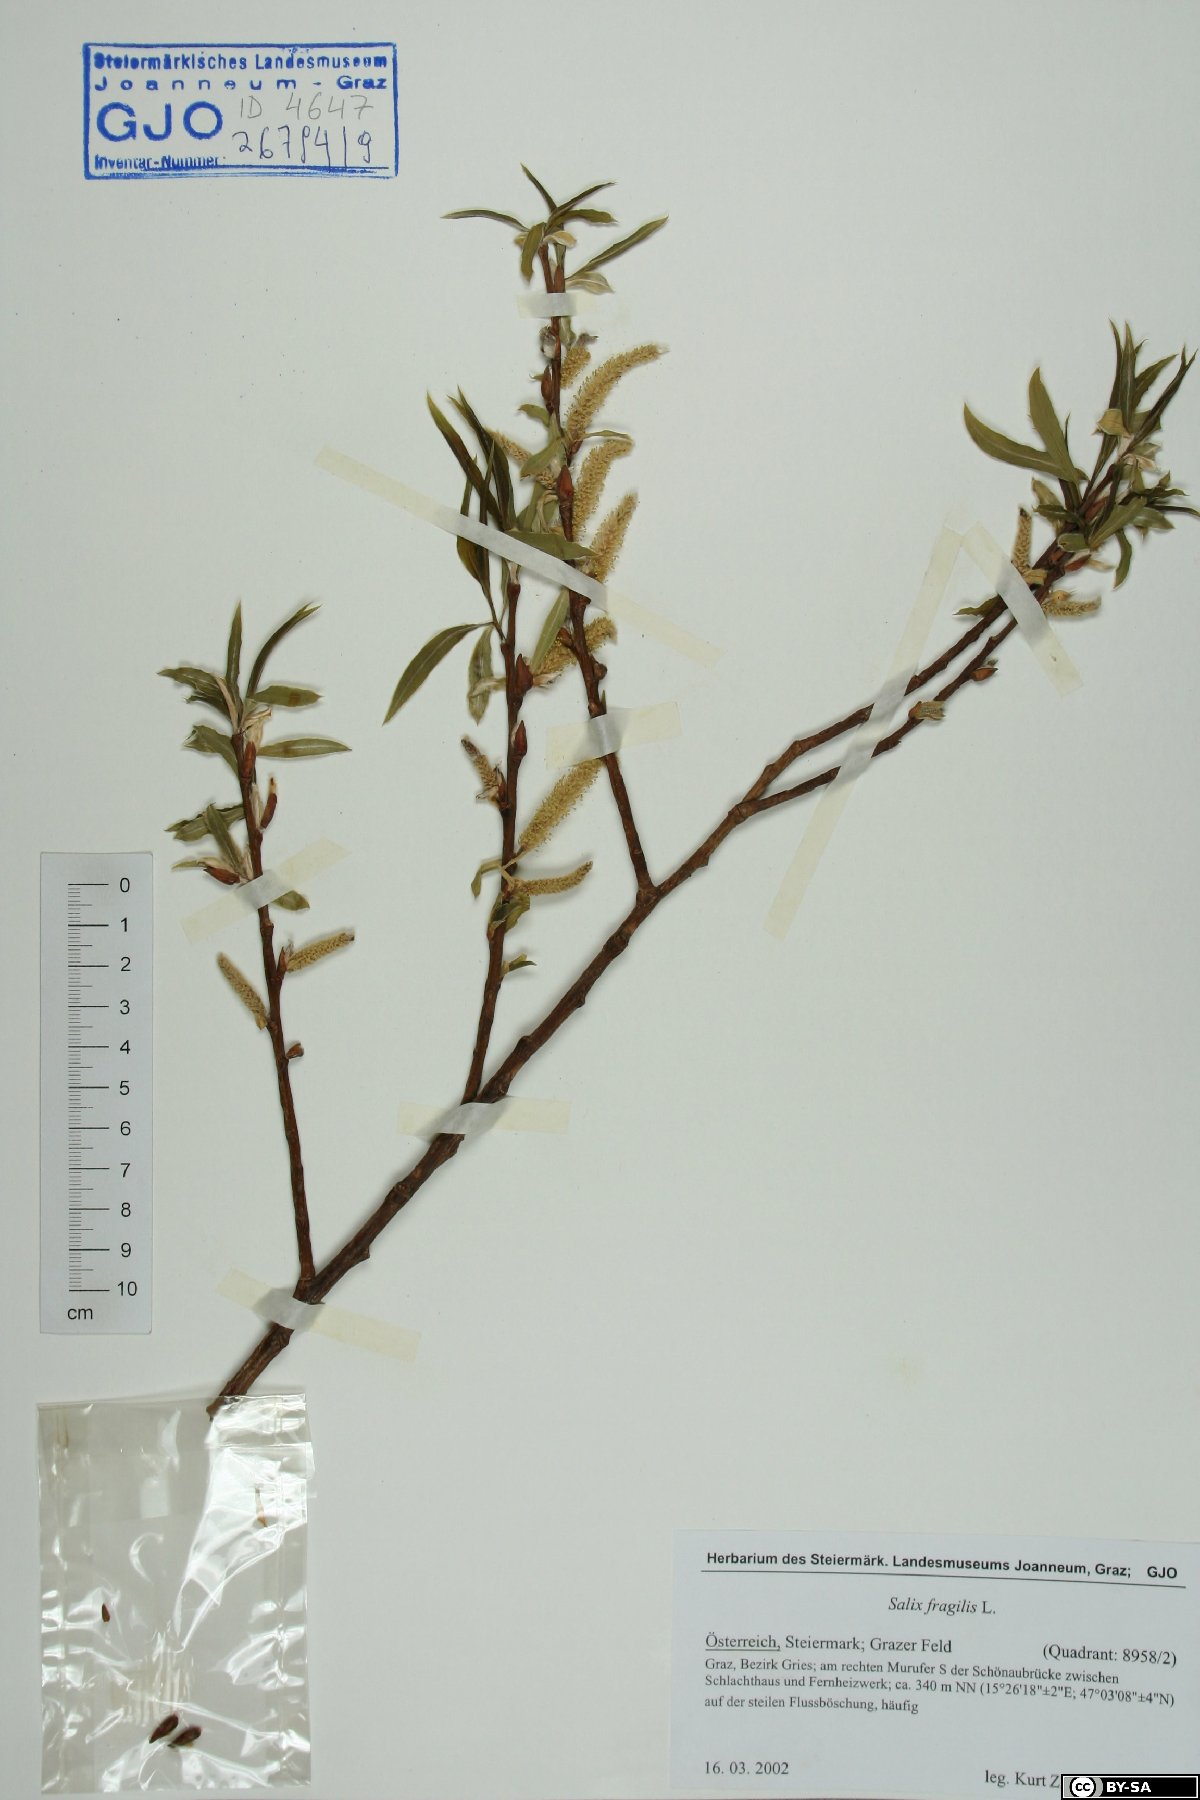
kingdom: Plantae
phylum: Tracheophyta
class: Magnoliopsida
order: Malpighiales
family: Salicaceae
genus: Salix
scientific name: Salix fragilis
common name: Crack willow
